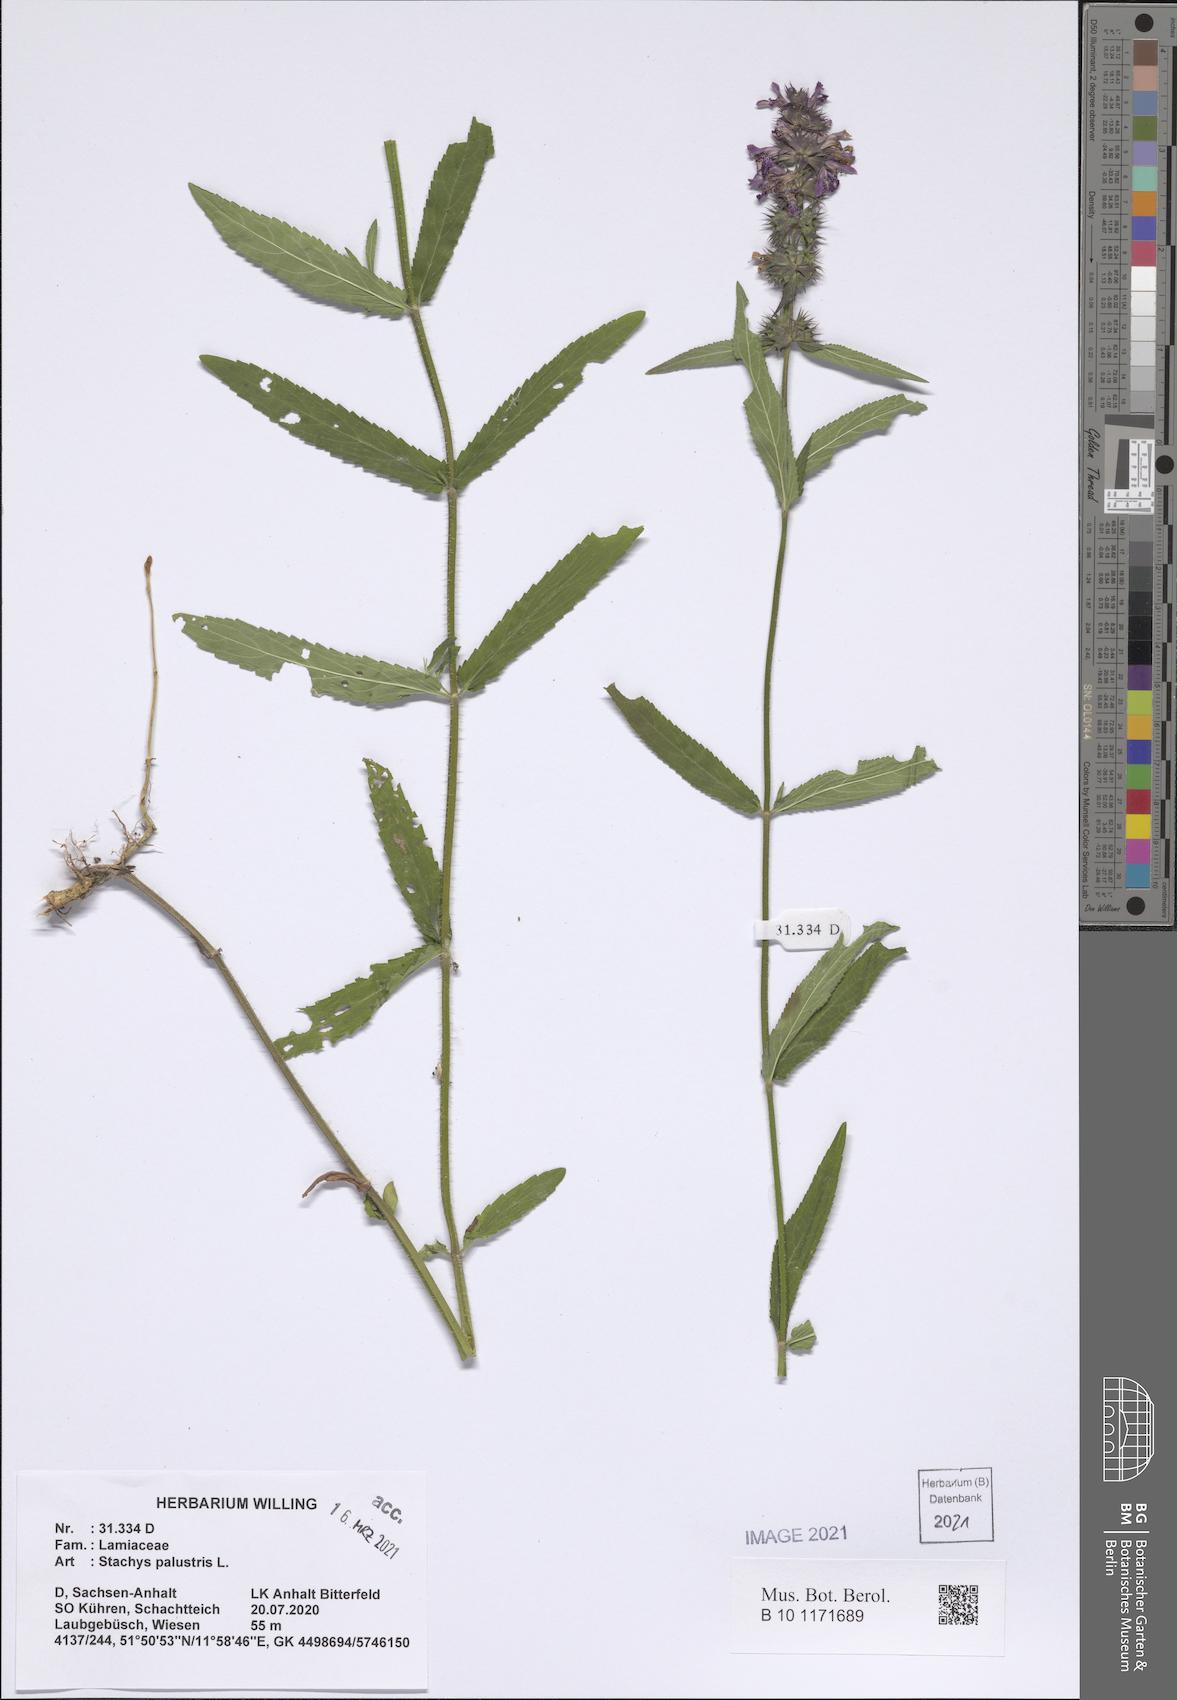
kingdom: Plantae
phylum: Tracheophyta
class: Magnoliopsida
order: Lamiales
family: Lamiaceae
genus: Stachys
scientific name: Stachys palustris
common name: Marsh woundwort
